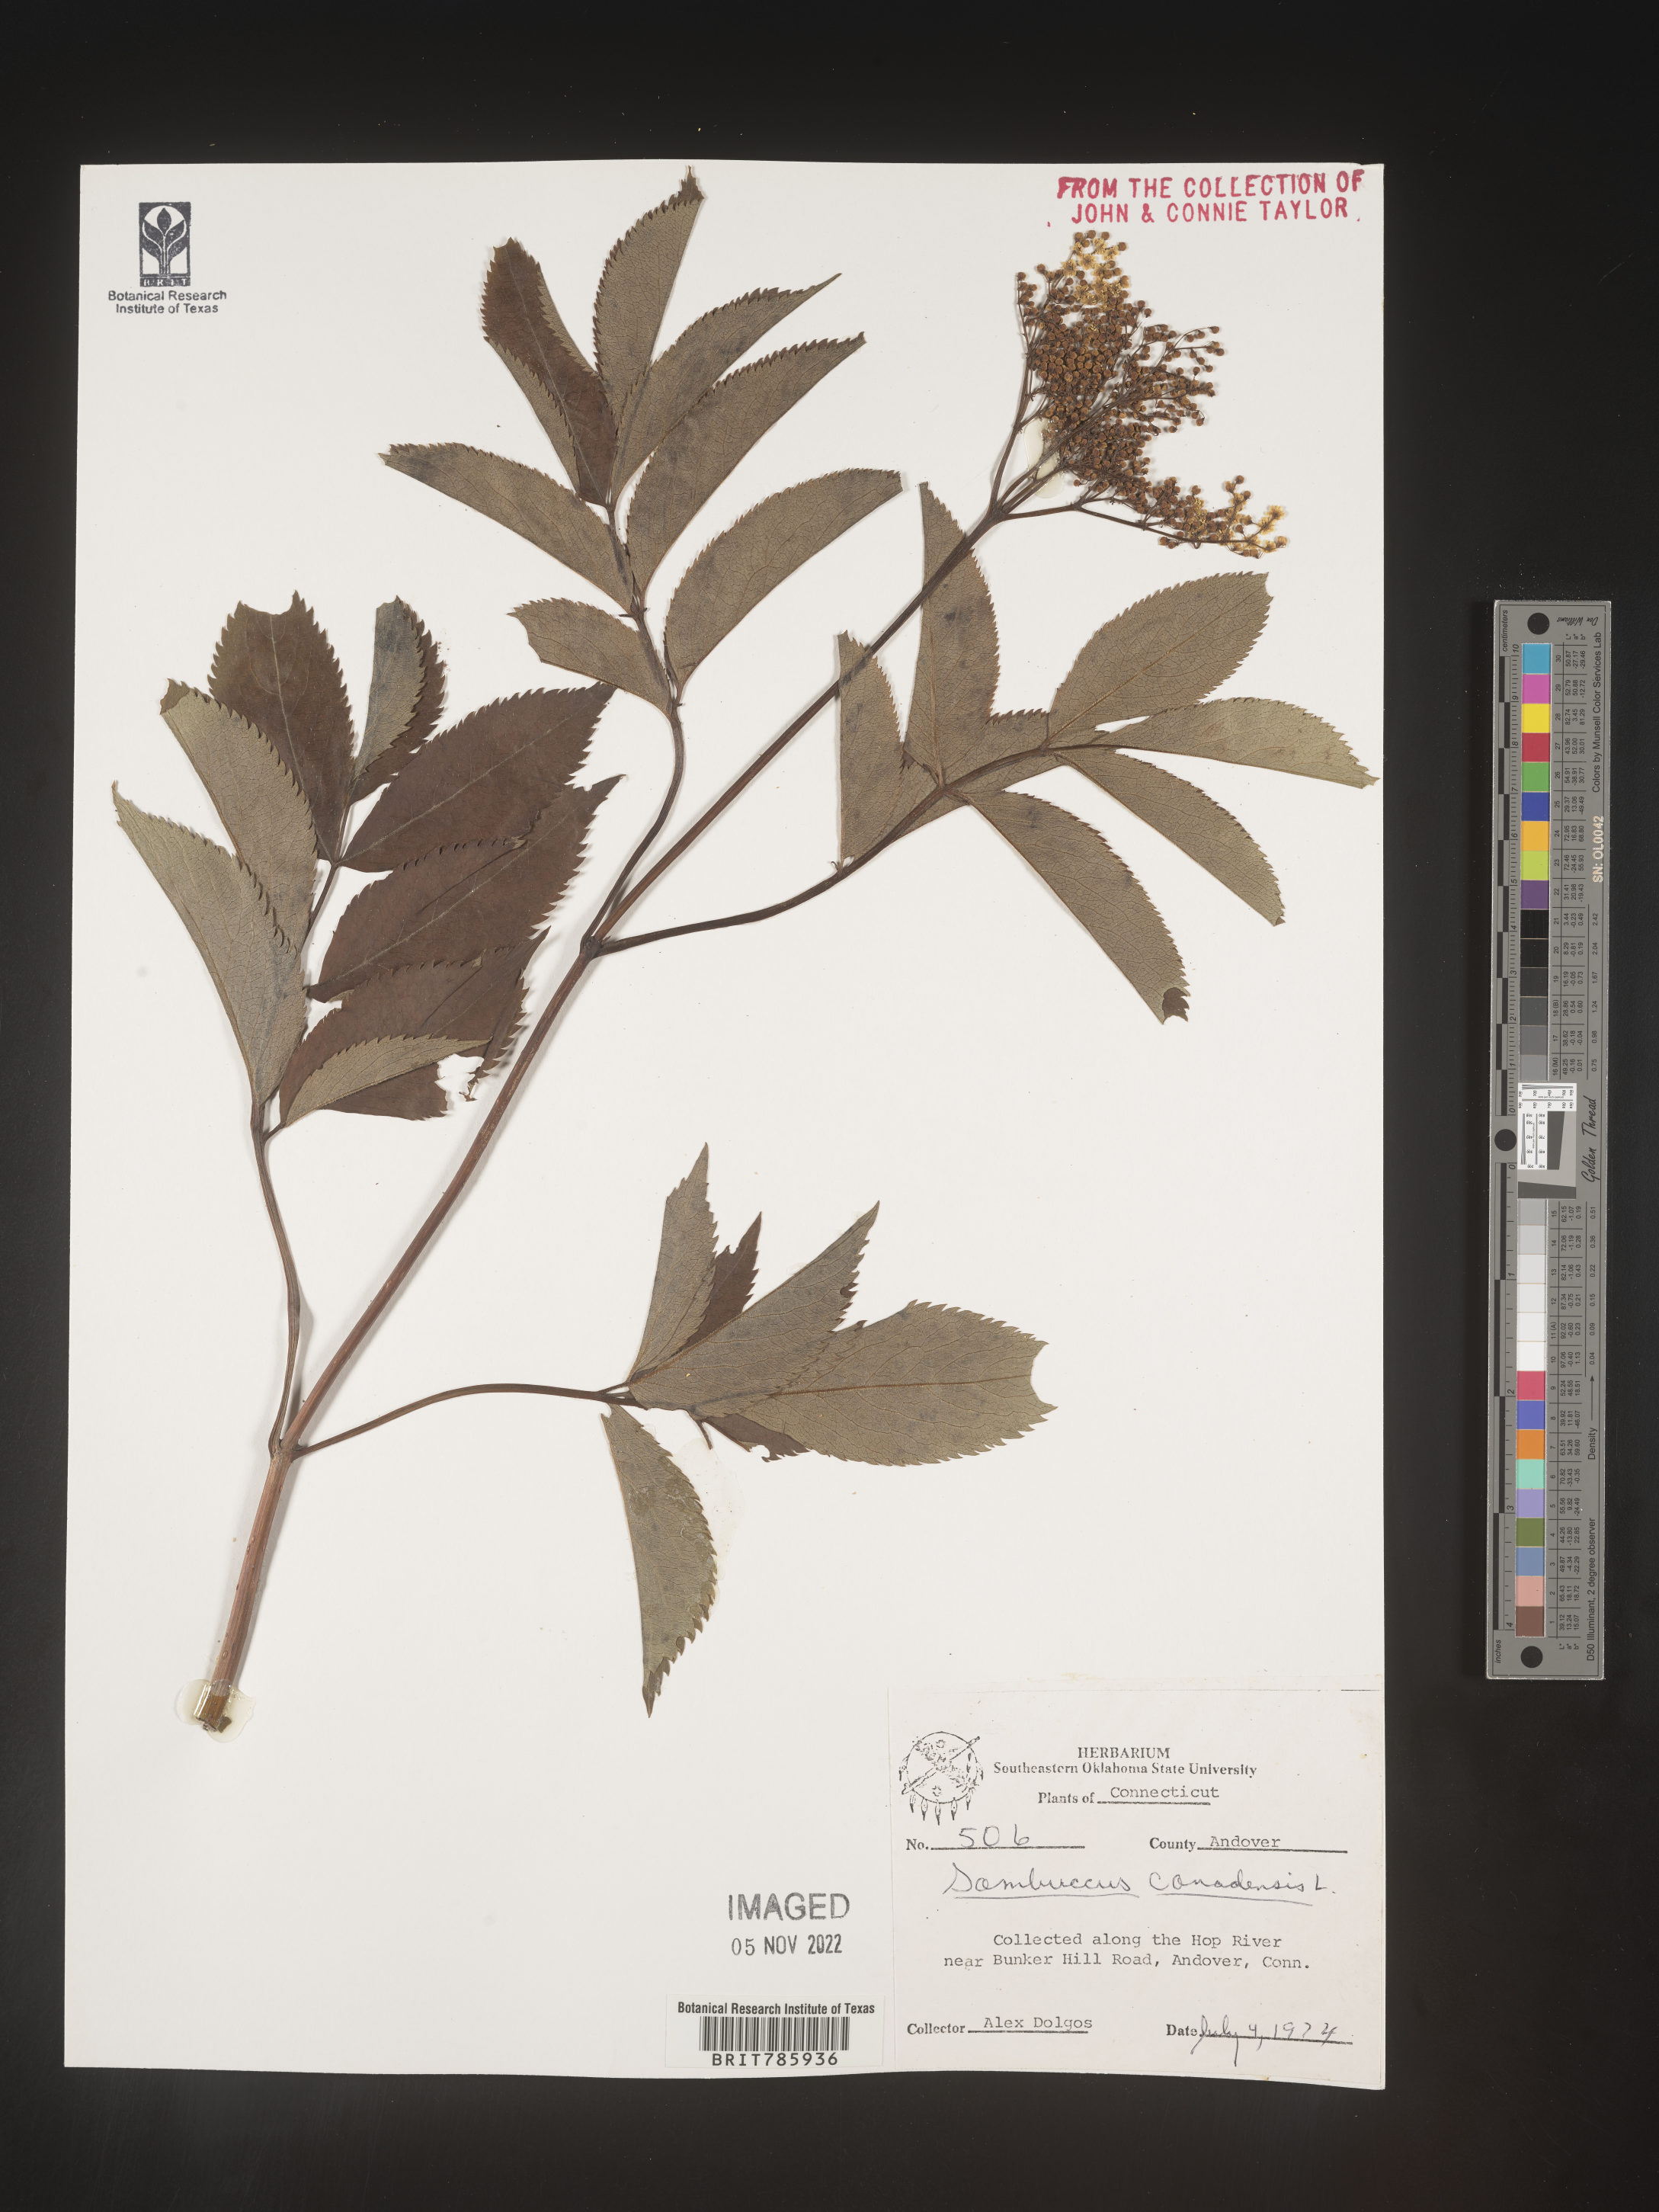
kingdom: Plantae
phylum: Tracheophyta
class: Magnoliopsida
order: Dipsacales
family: Viburnaceae
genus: Sambucus
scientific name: Sambucus nigra
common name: Elder
